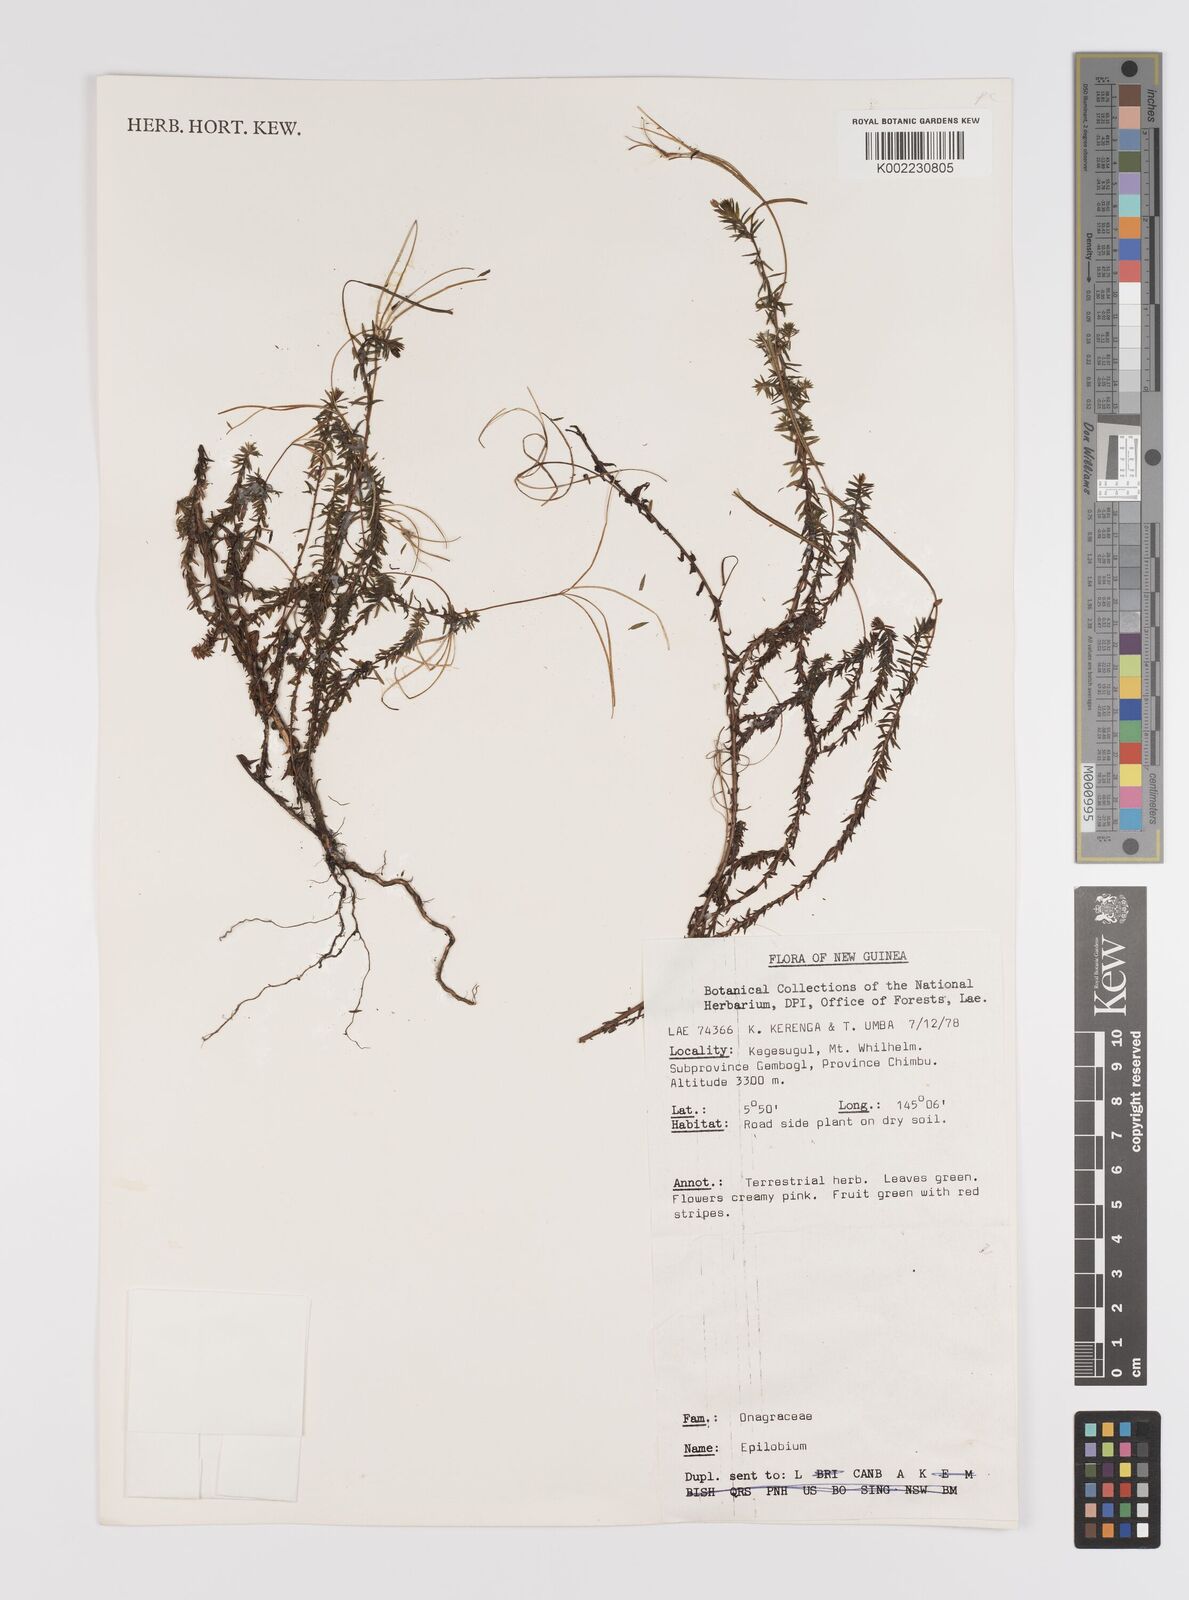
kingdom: Plantae
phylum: Tracheophyta
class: Magnoliopsida
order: Myrtales
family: Onagraceae
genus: Epilobium
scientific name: Epilobium
